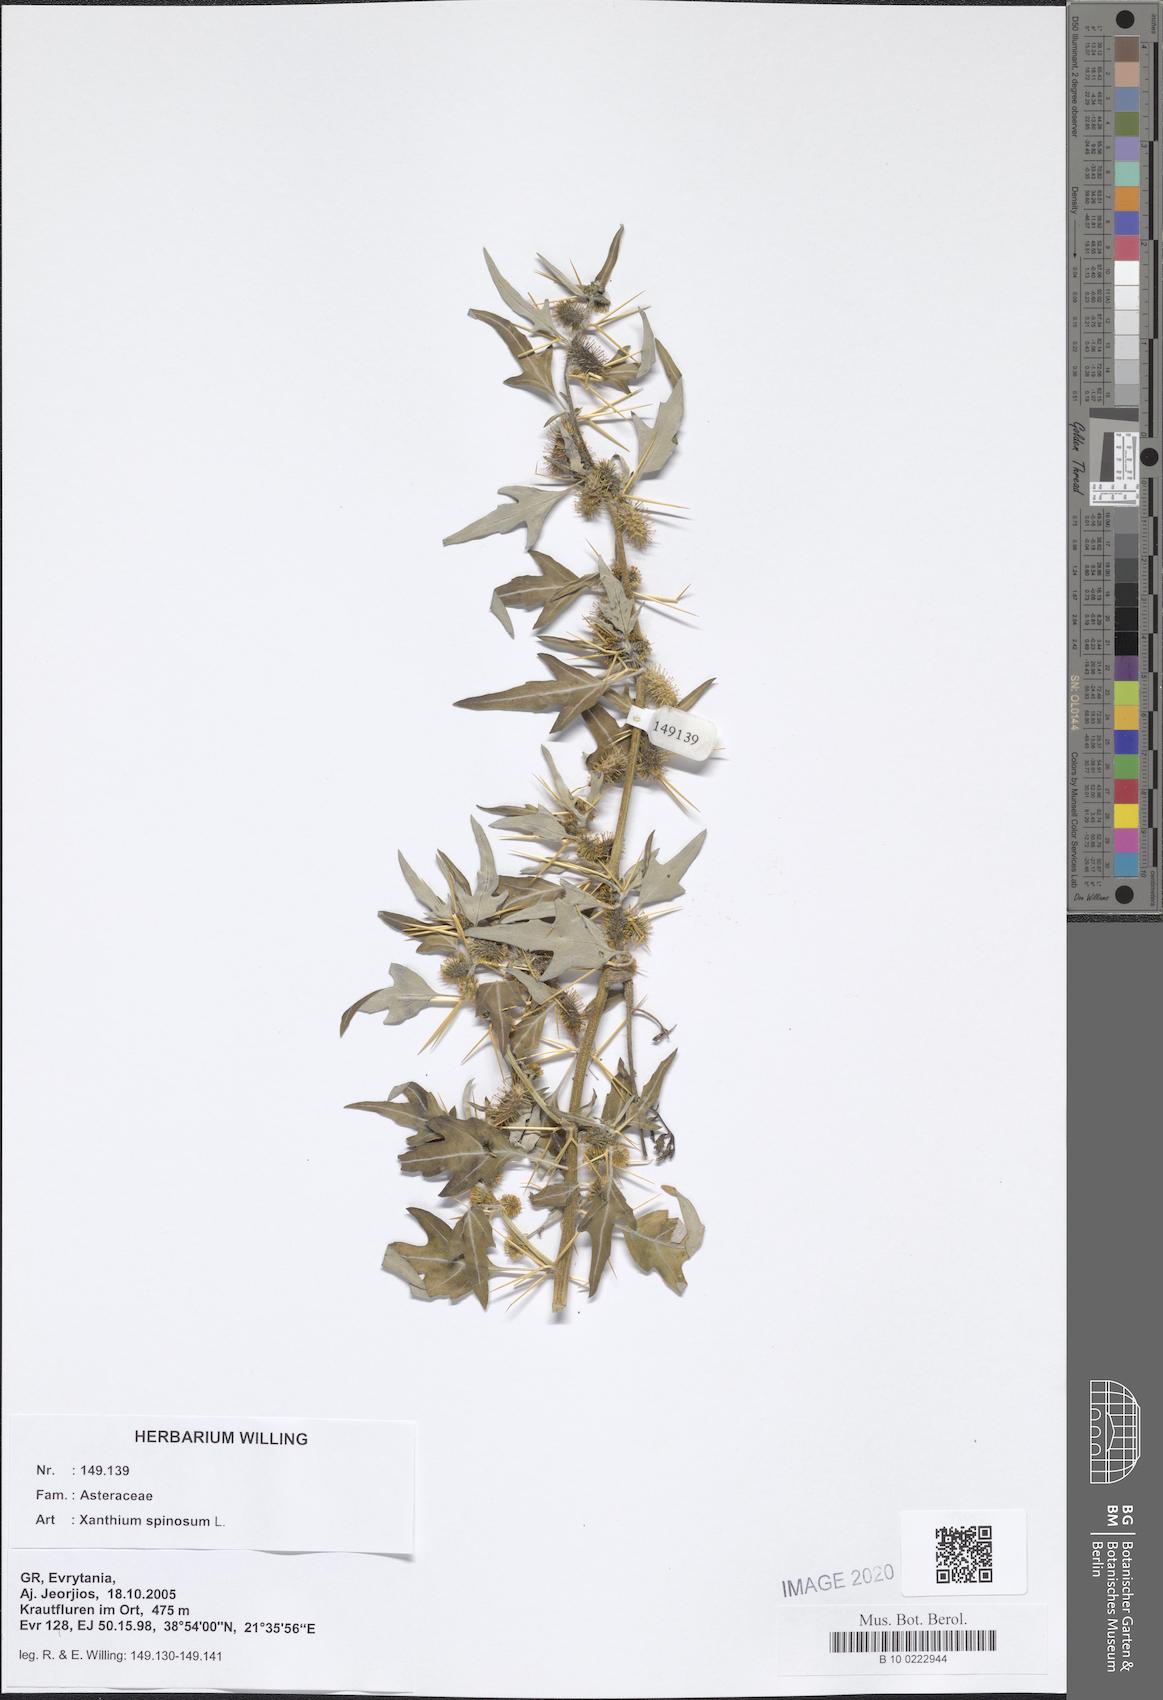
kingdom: Plantae
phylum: Tracheophyta
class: Magnoliopsida
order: Asterales
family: Asteraceae
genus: Xanthium
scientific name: Xanthium spinosum
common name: Spiny cocklebur
